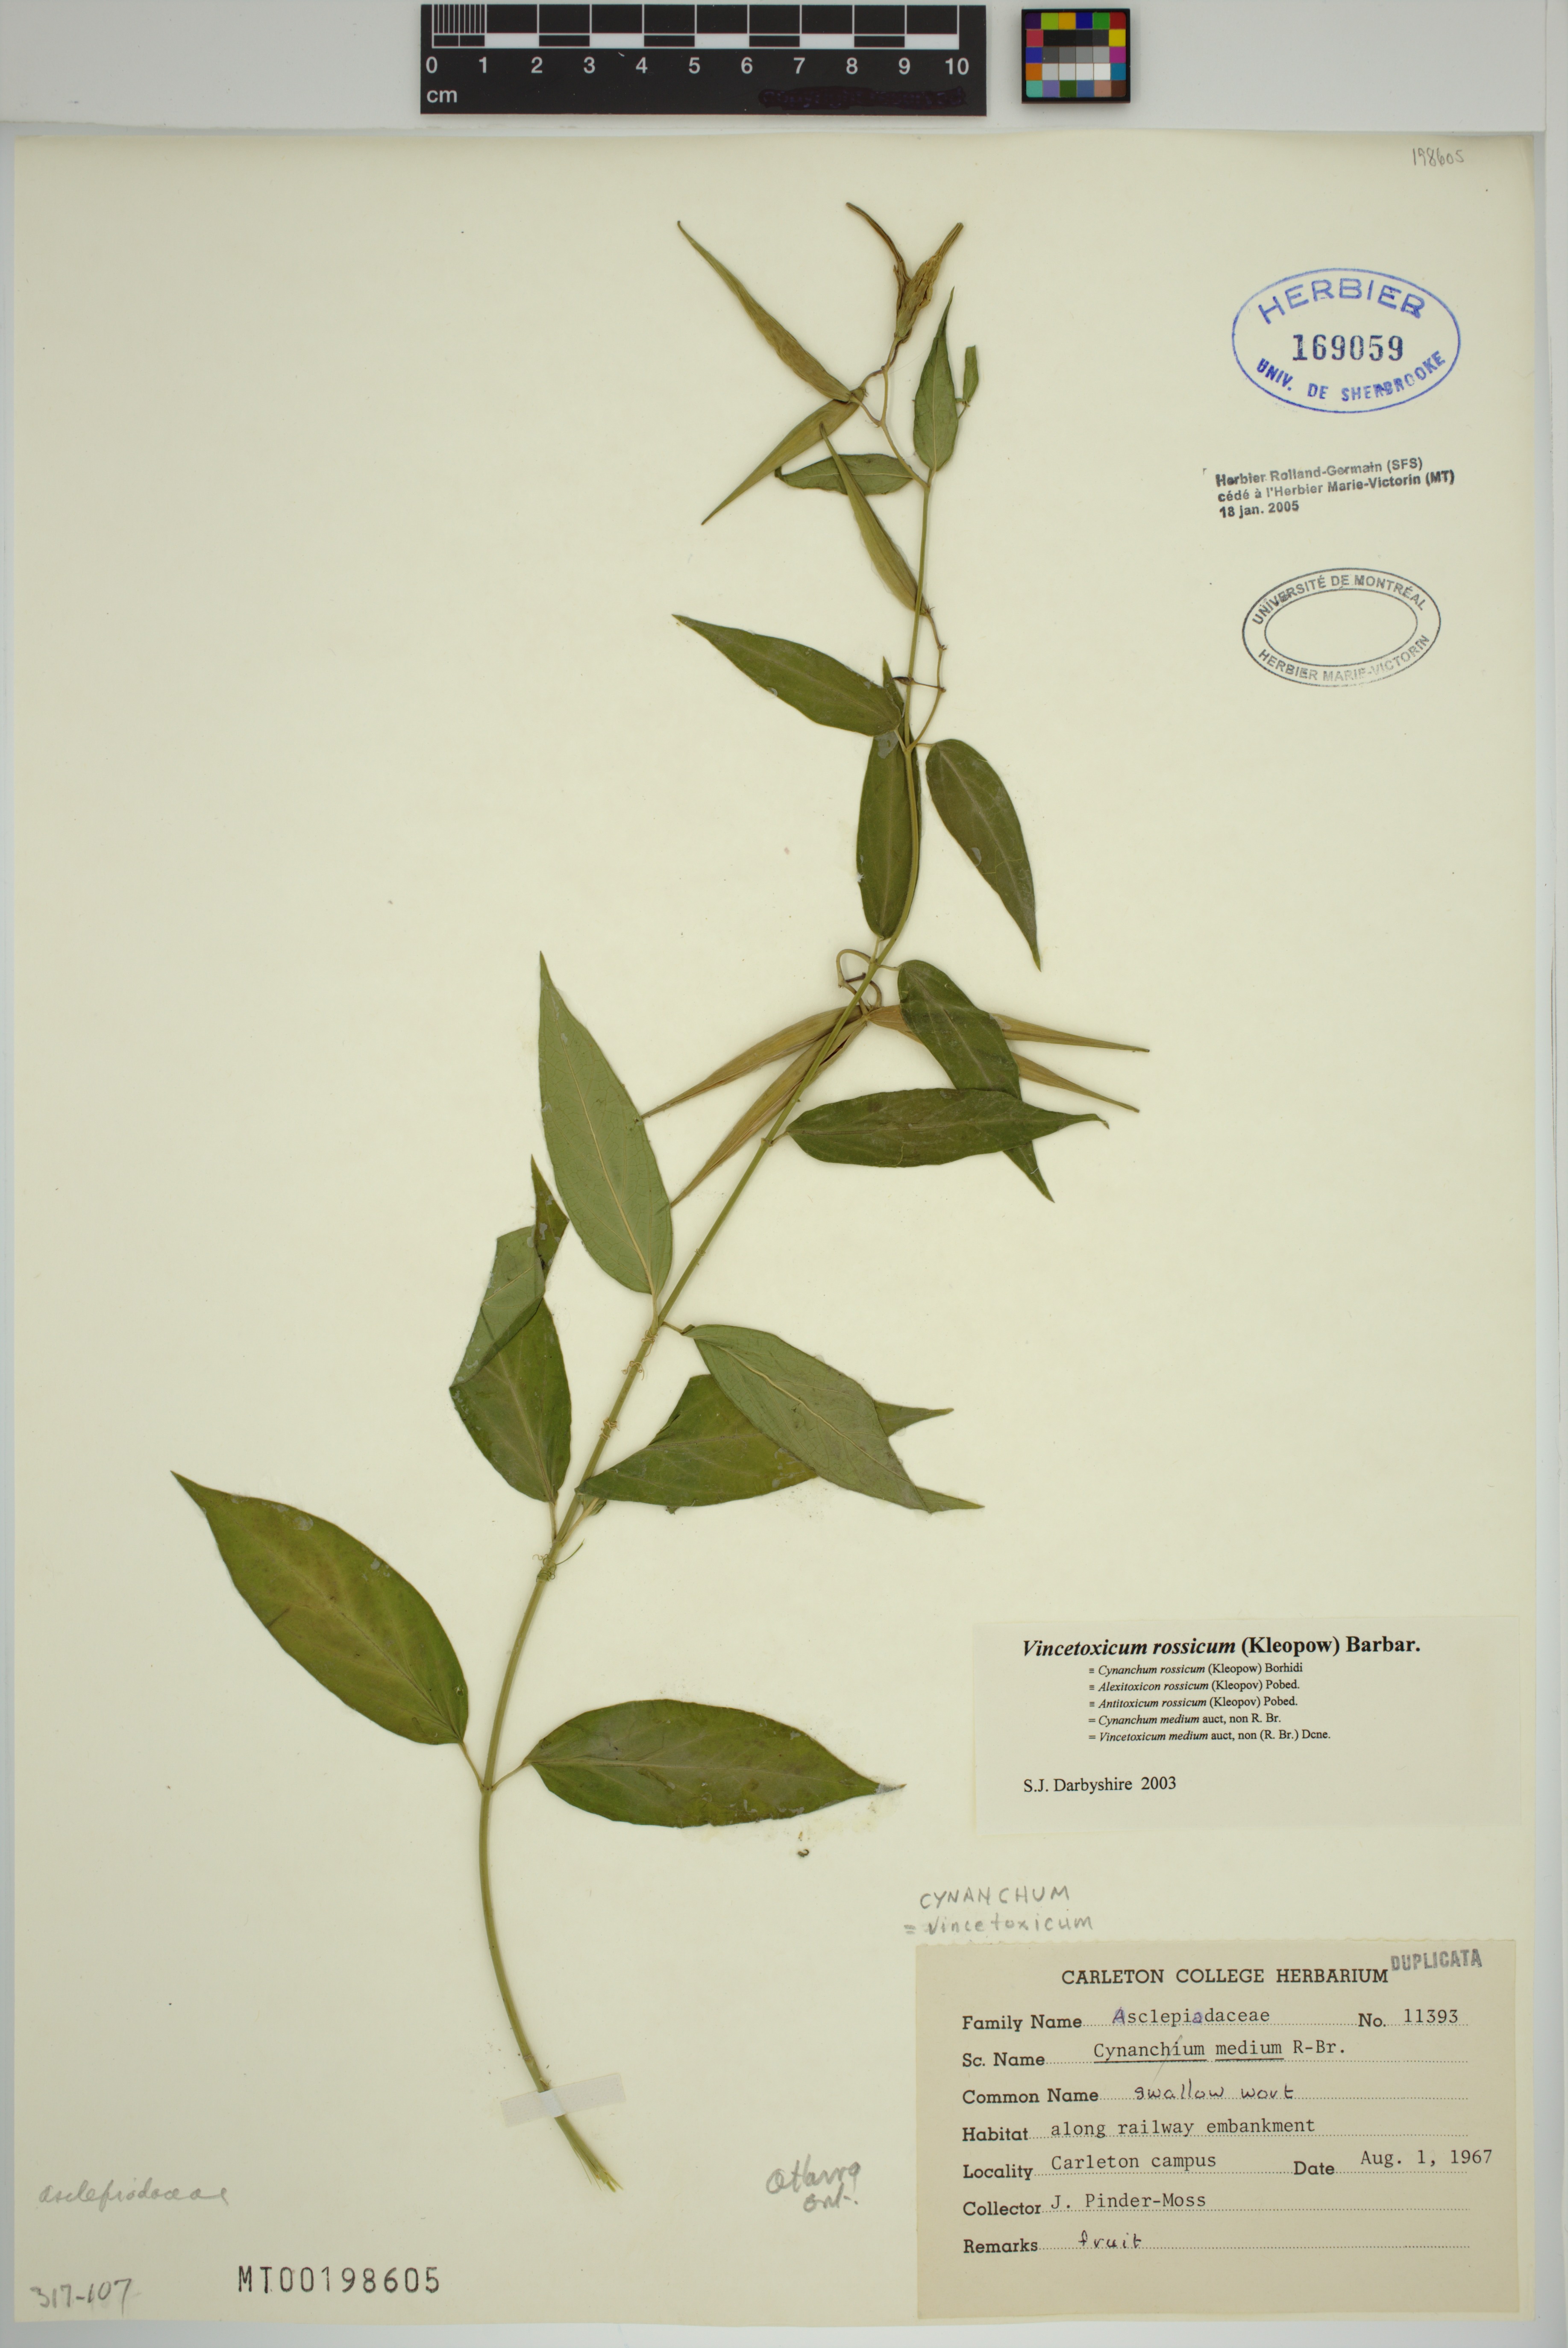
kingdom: Plantae
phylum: Tracheophyta
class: Magnoliopsida
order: Gentianales
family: Apocynaceae
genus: Vincetoxicum
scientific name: Vincetoxicum rossicum
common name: Dog-strangling vine
